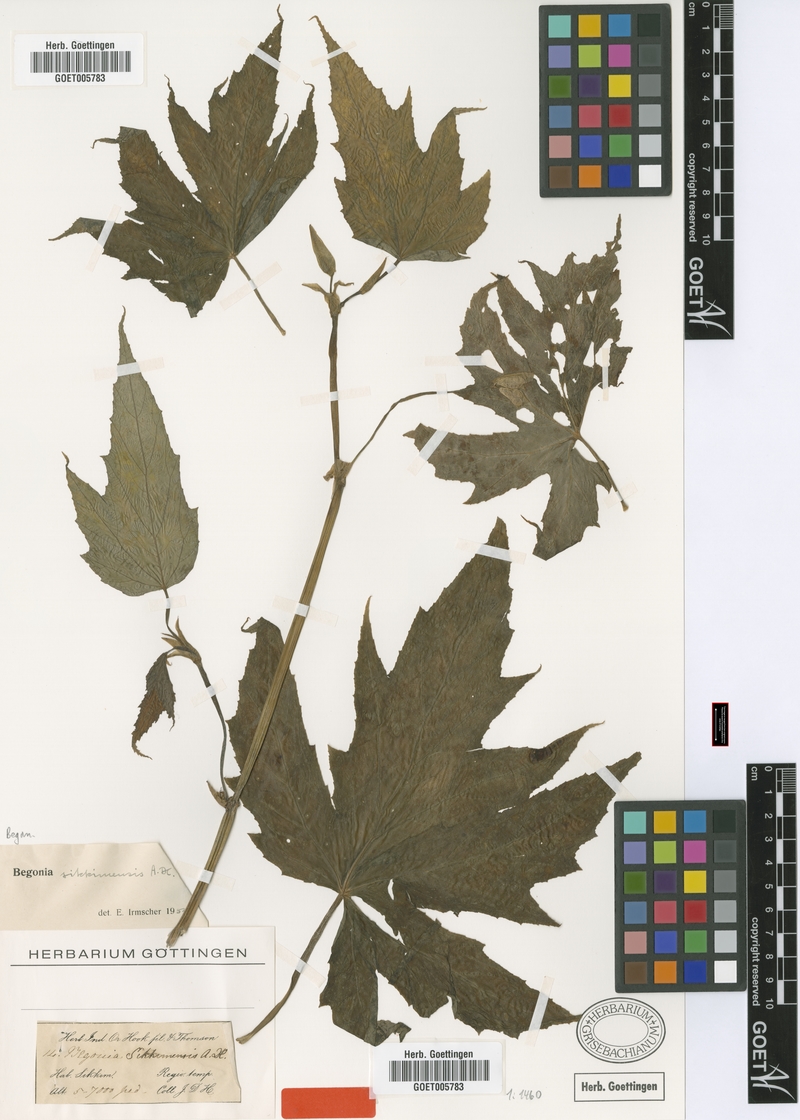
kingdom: Plantae
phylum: Tracheophyta
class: Magnoliopsida
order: Cucurbitales
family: Begoniaceae
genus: Begonia
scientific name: Begonia sikkimensis
